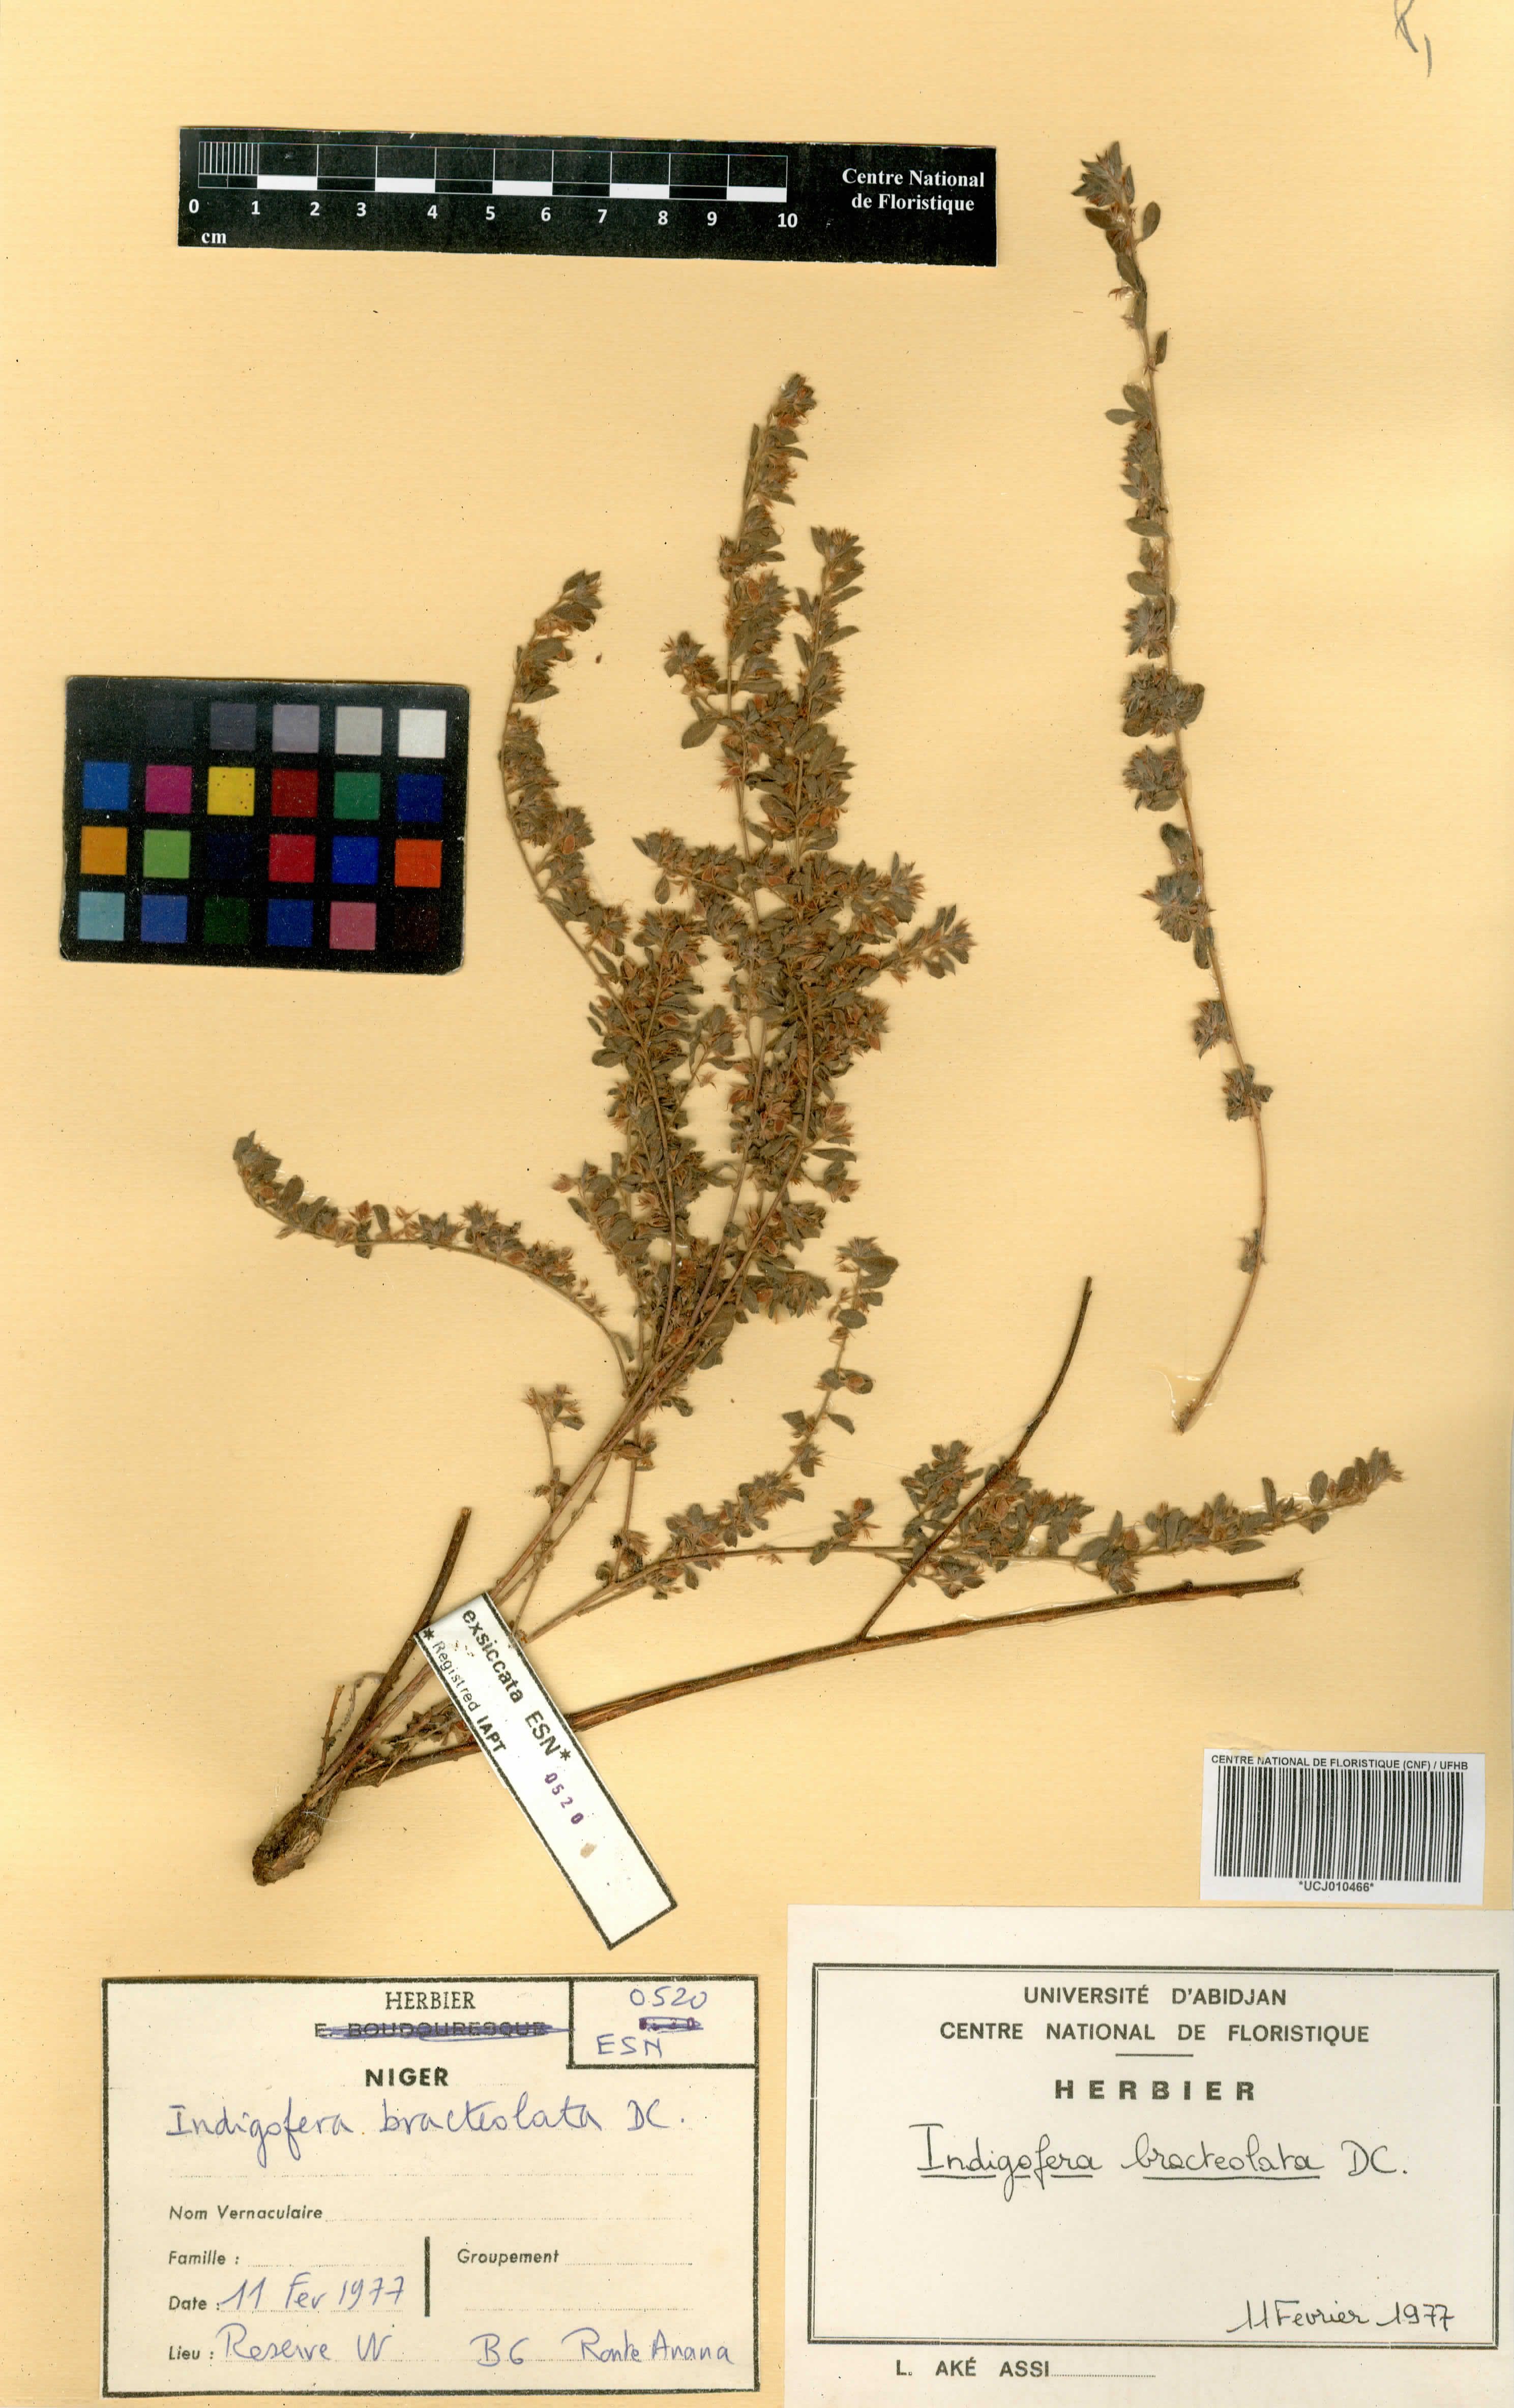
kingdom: Plantae
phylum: Tracheophyta
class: Magnoliopsida
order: Fabales
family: Fabaceae
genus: Indigofera
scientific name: Indigofera bracteolata
